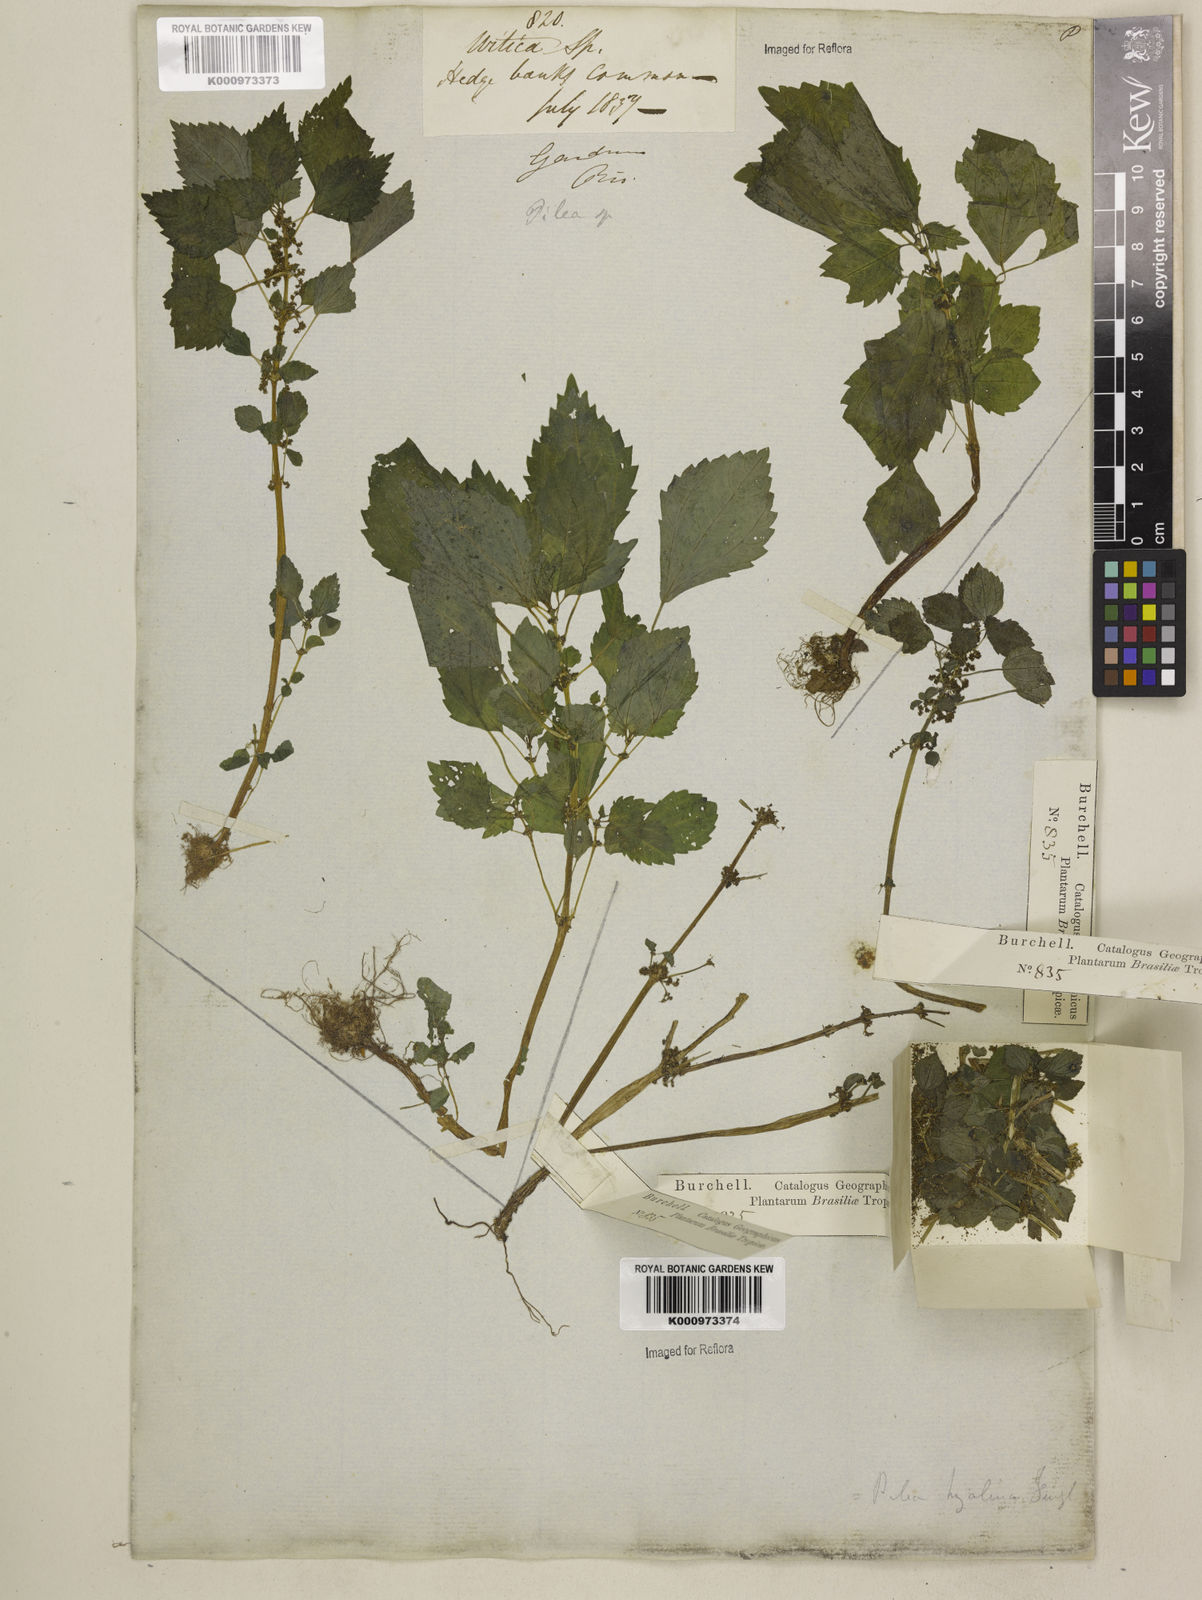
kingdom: Plantae
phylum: Tracheophyta
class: Magnoliopsida
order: Rosales
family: Urticaceae
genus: Pilea
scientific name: Pilea hyalina
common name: Virdrillo
